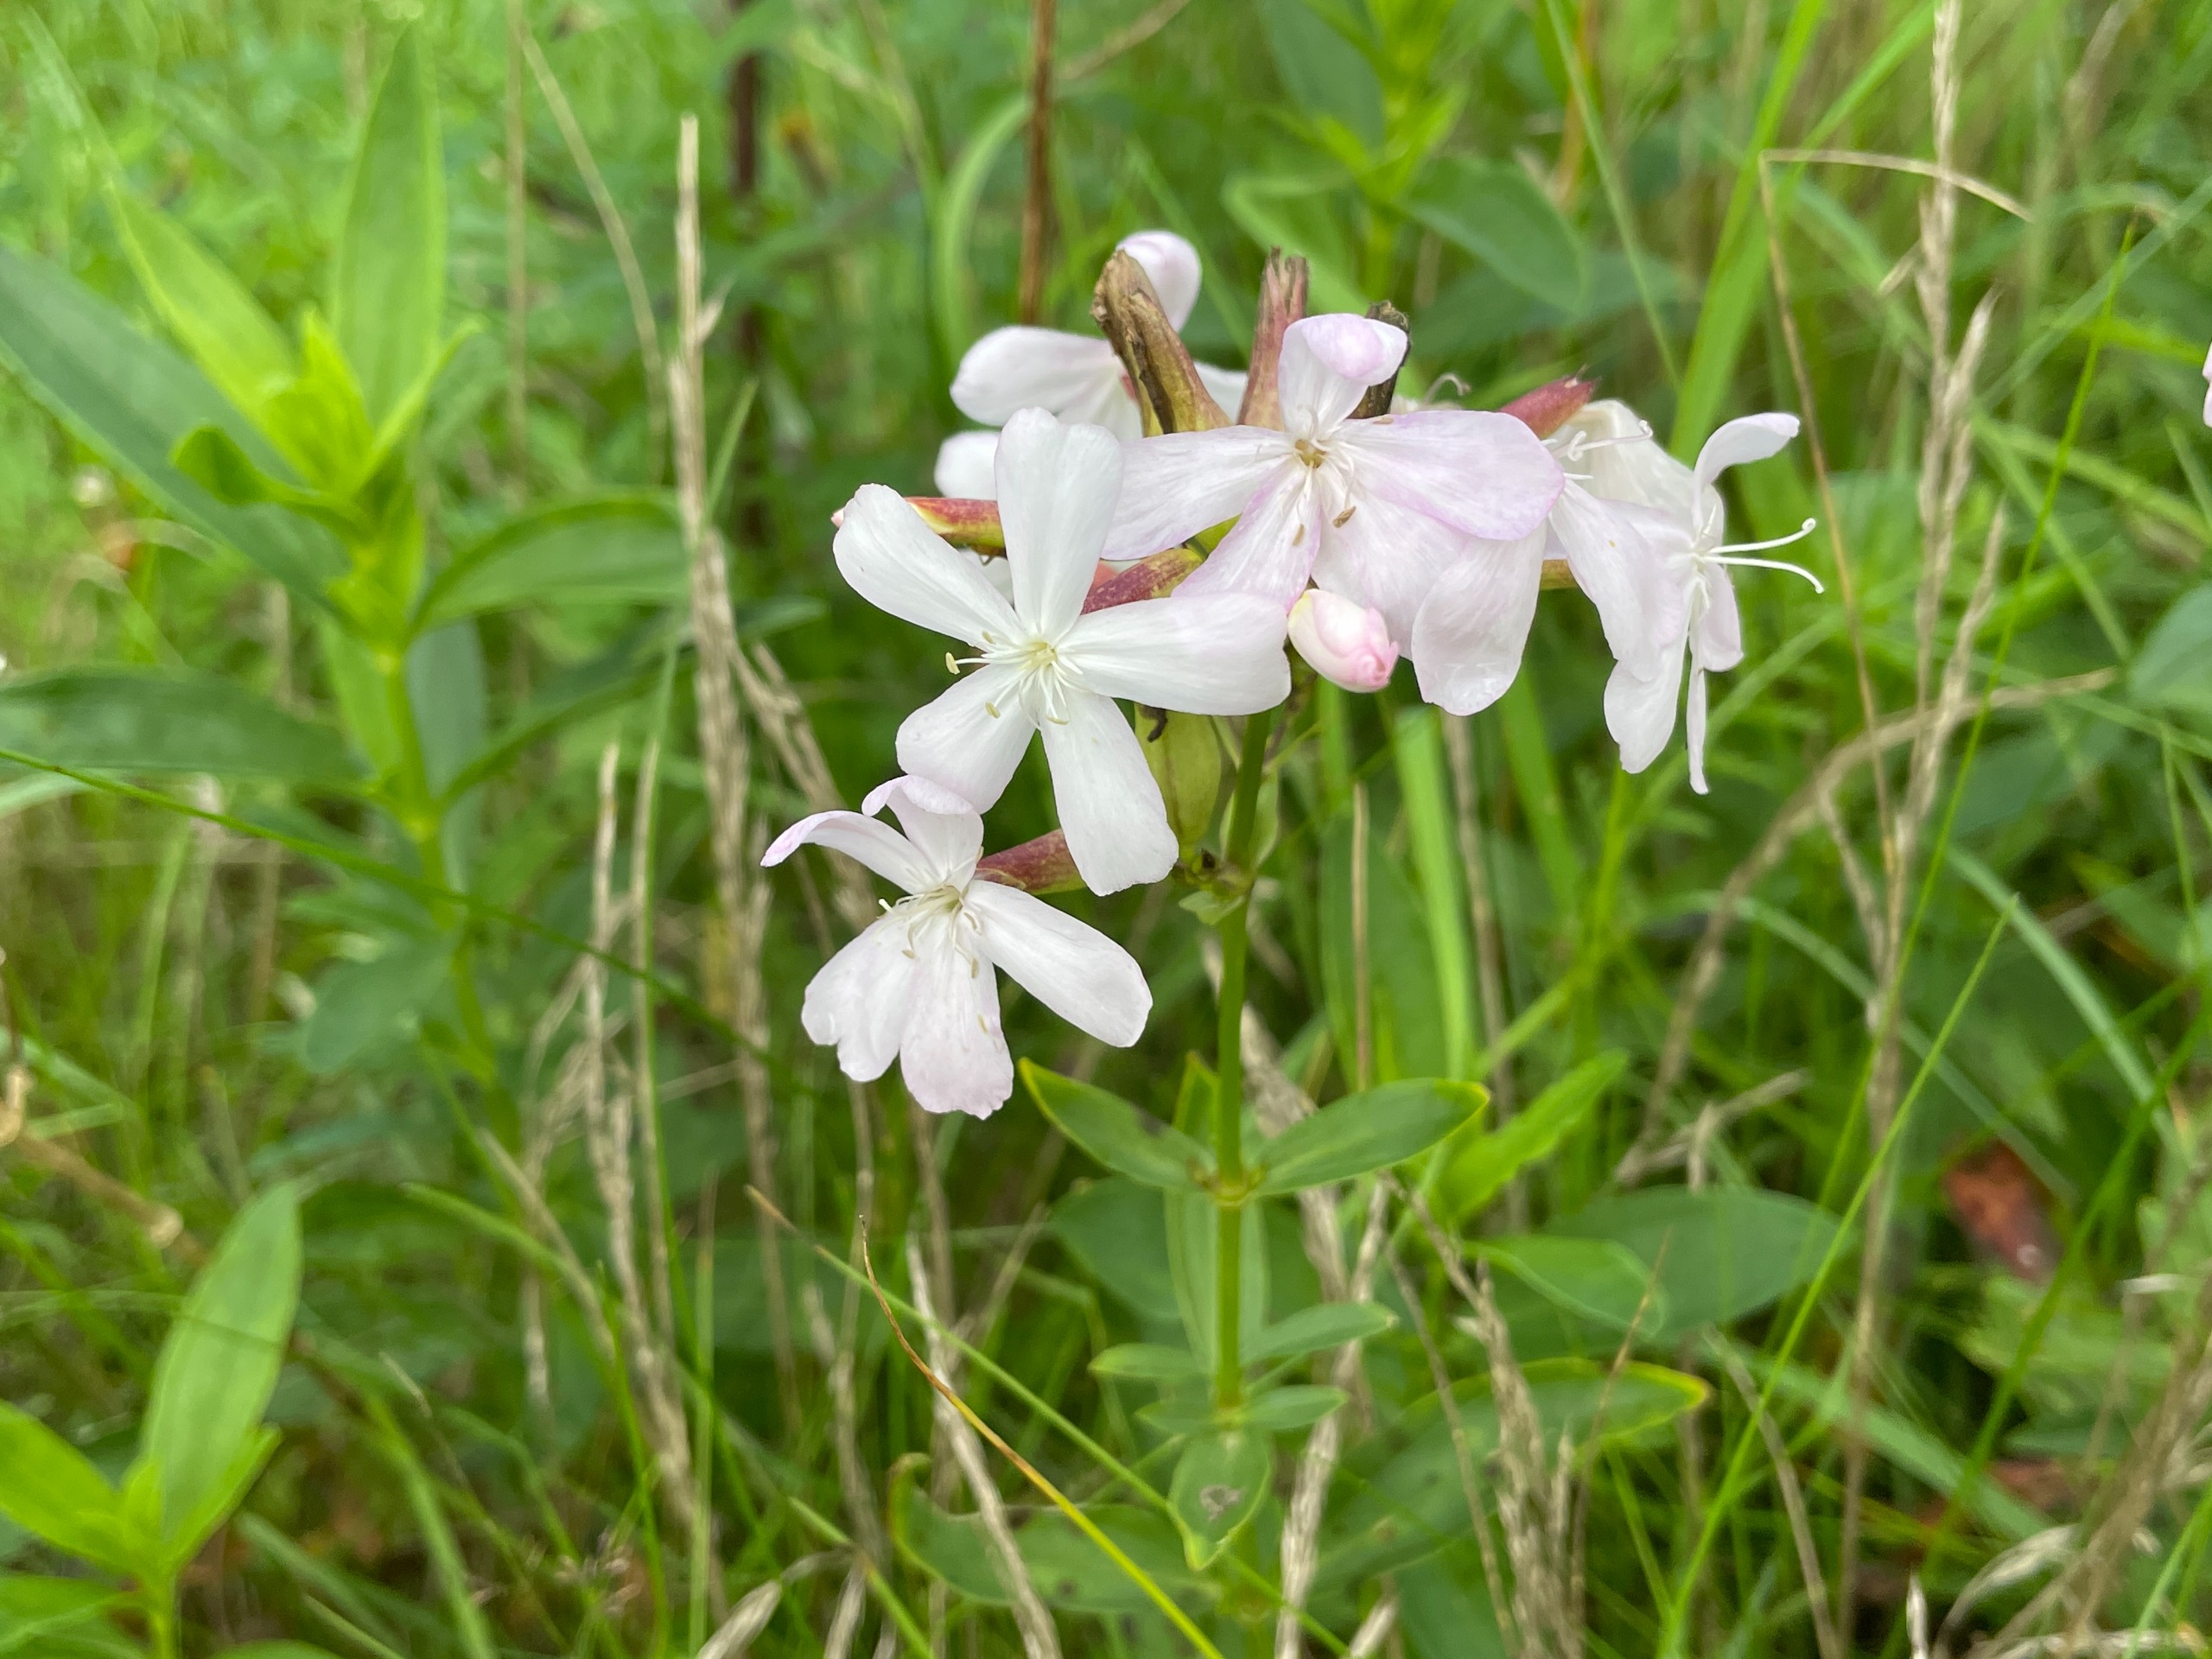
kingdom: Plantae
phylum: Tracheophyta
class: Magnoliopsida
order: Caryophyllales
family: Caryophyllaceae
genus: Saponaria
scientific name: Saponaria officinalis
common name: Sæbeurt
